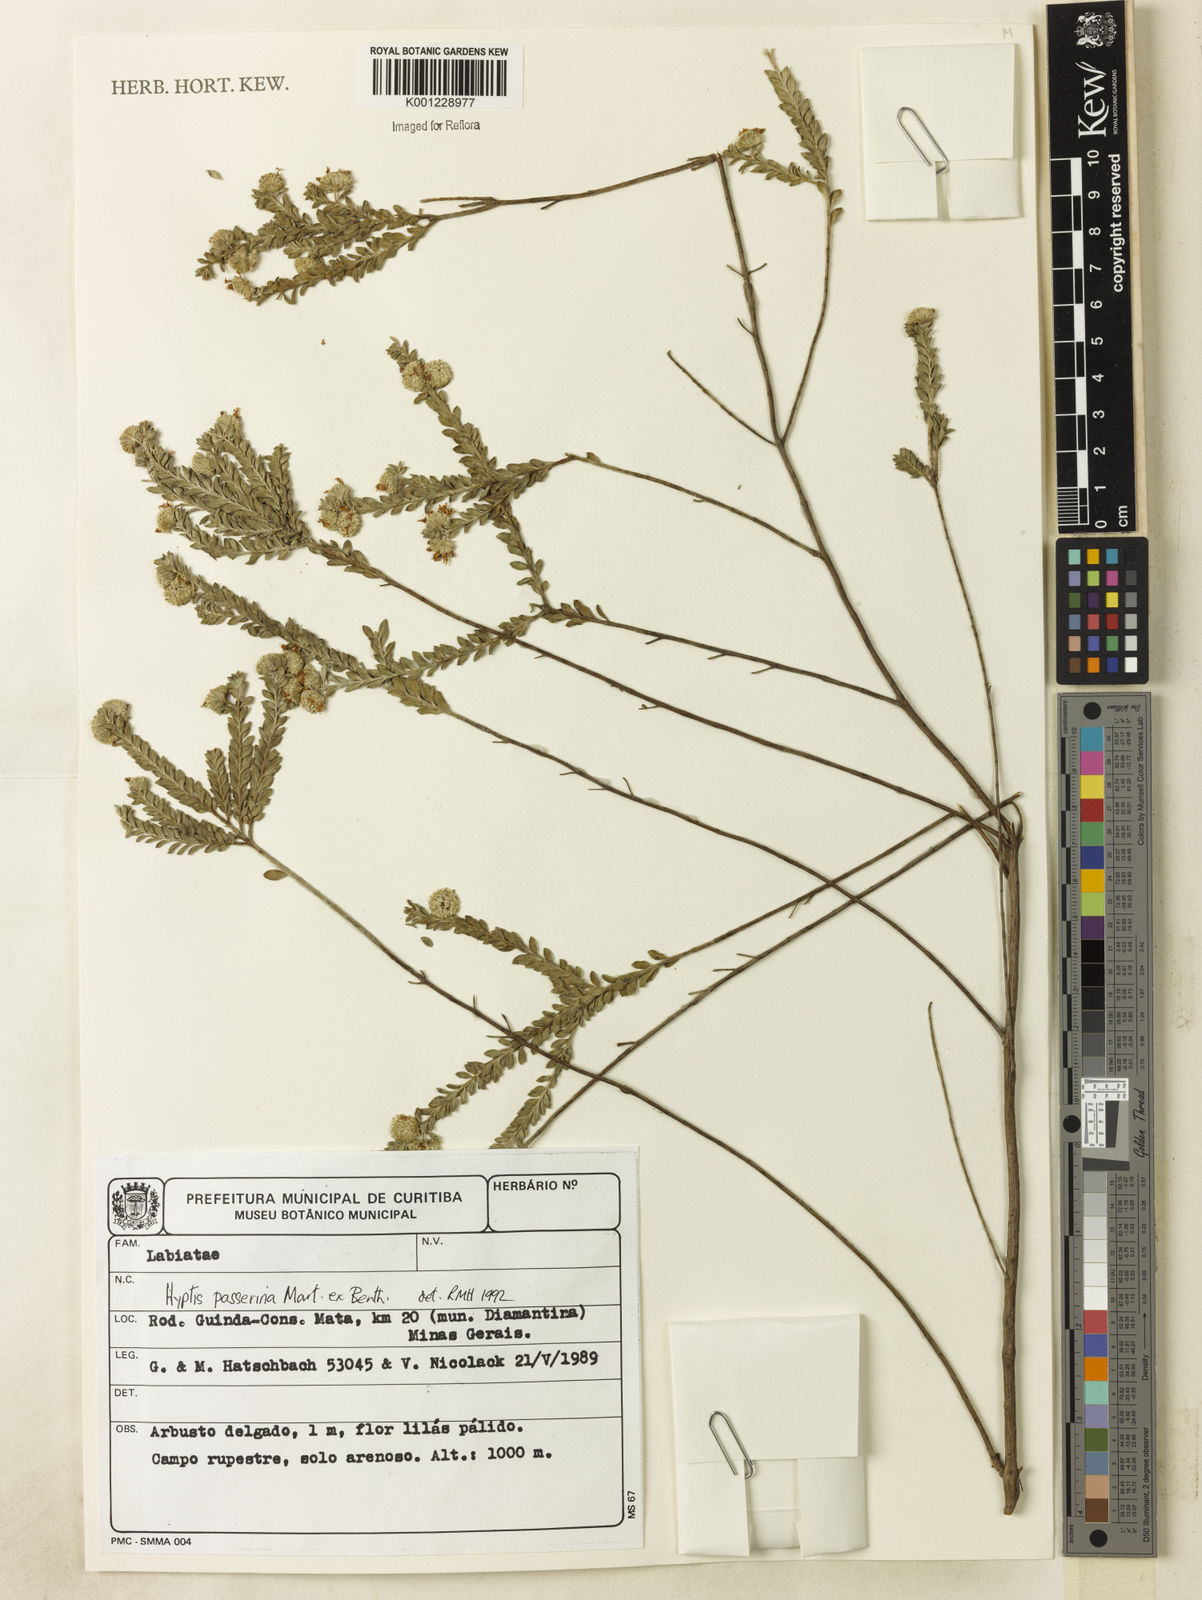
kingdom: Plantae
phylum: Tracheophyta
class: Magnoliopsida
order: Lamiales
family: Lamiaceae
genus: Hyptis
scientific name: Hyptis passerina
